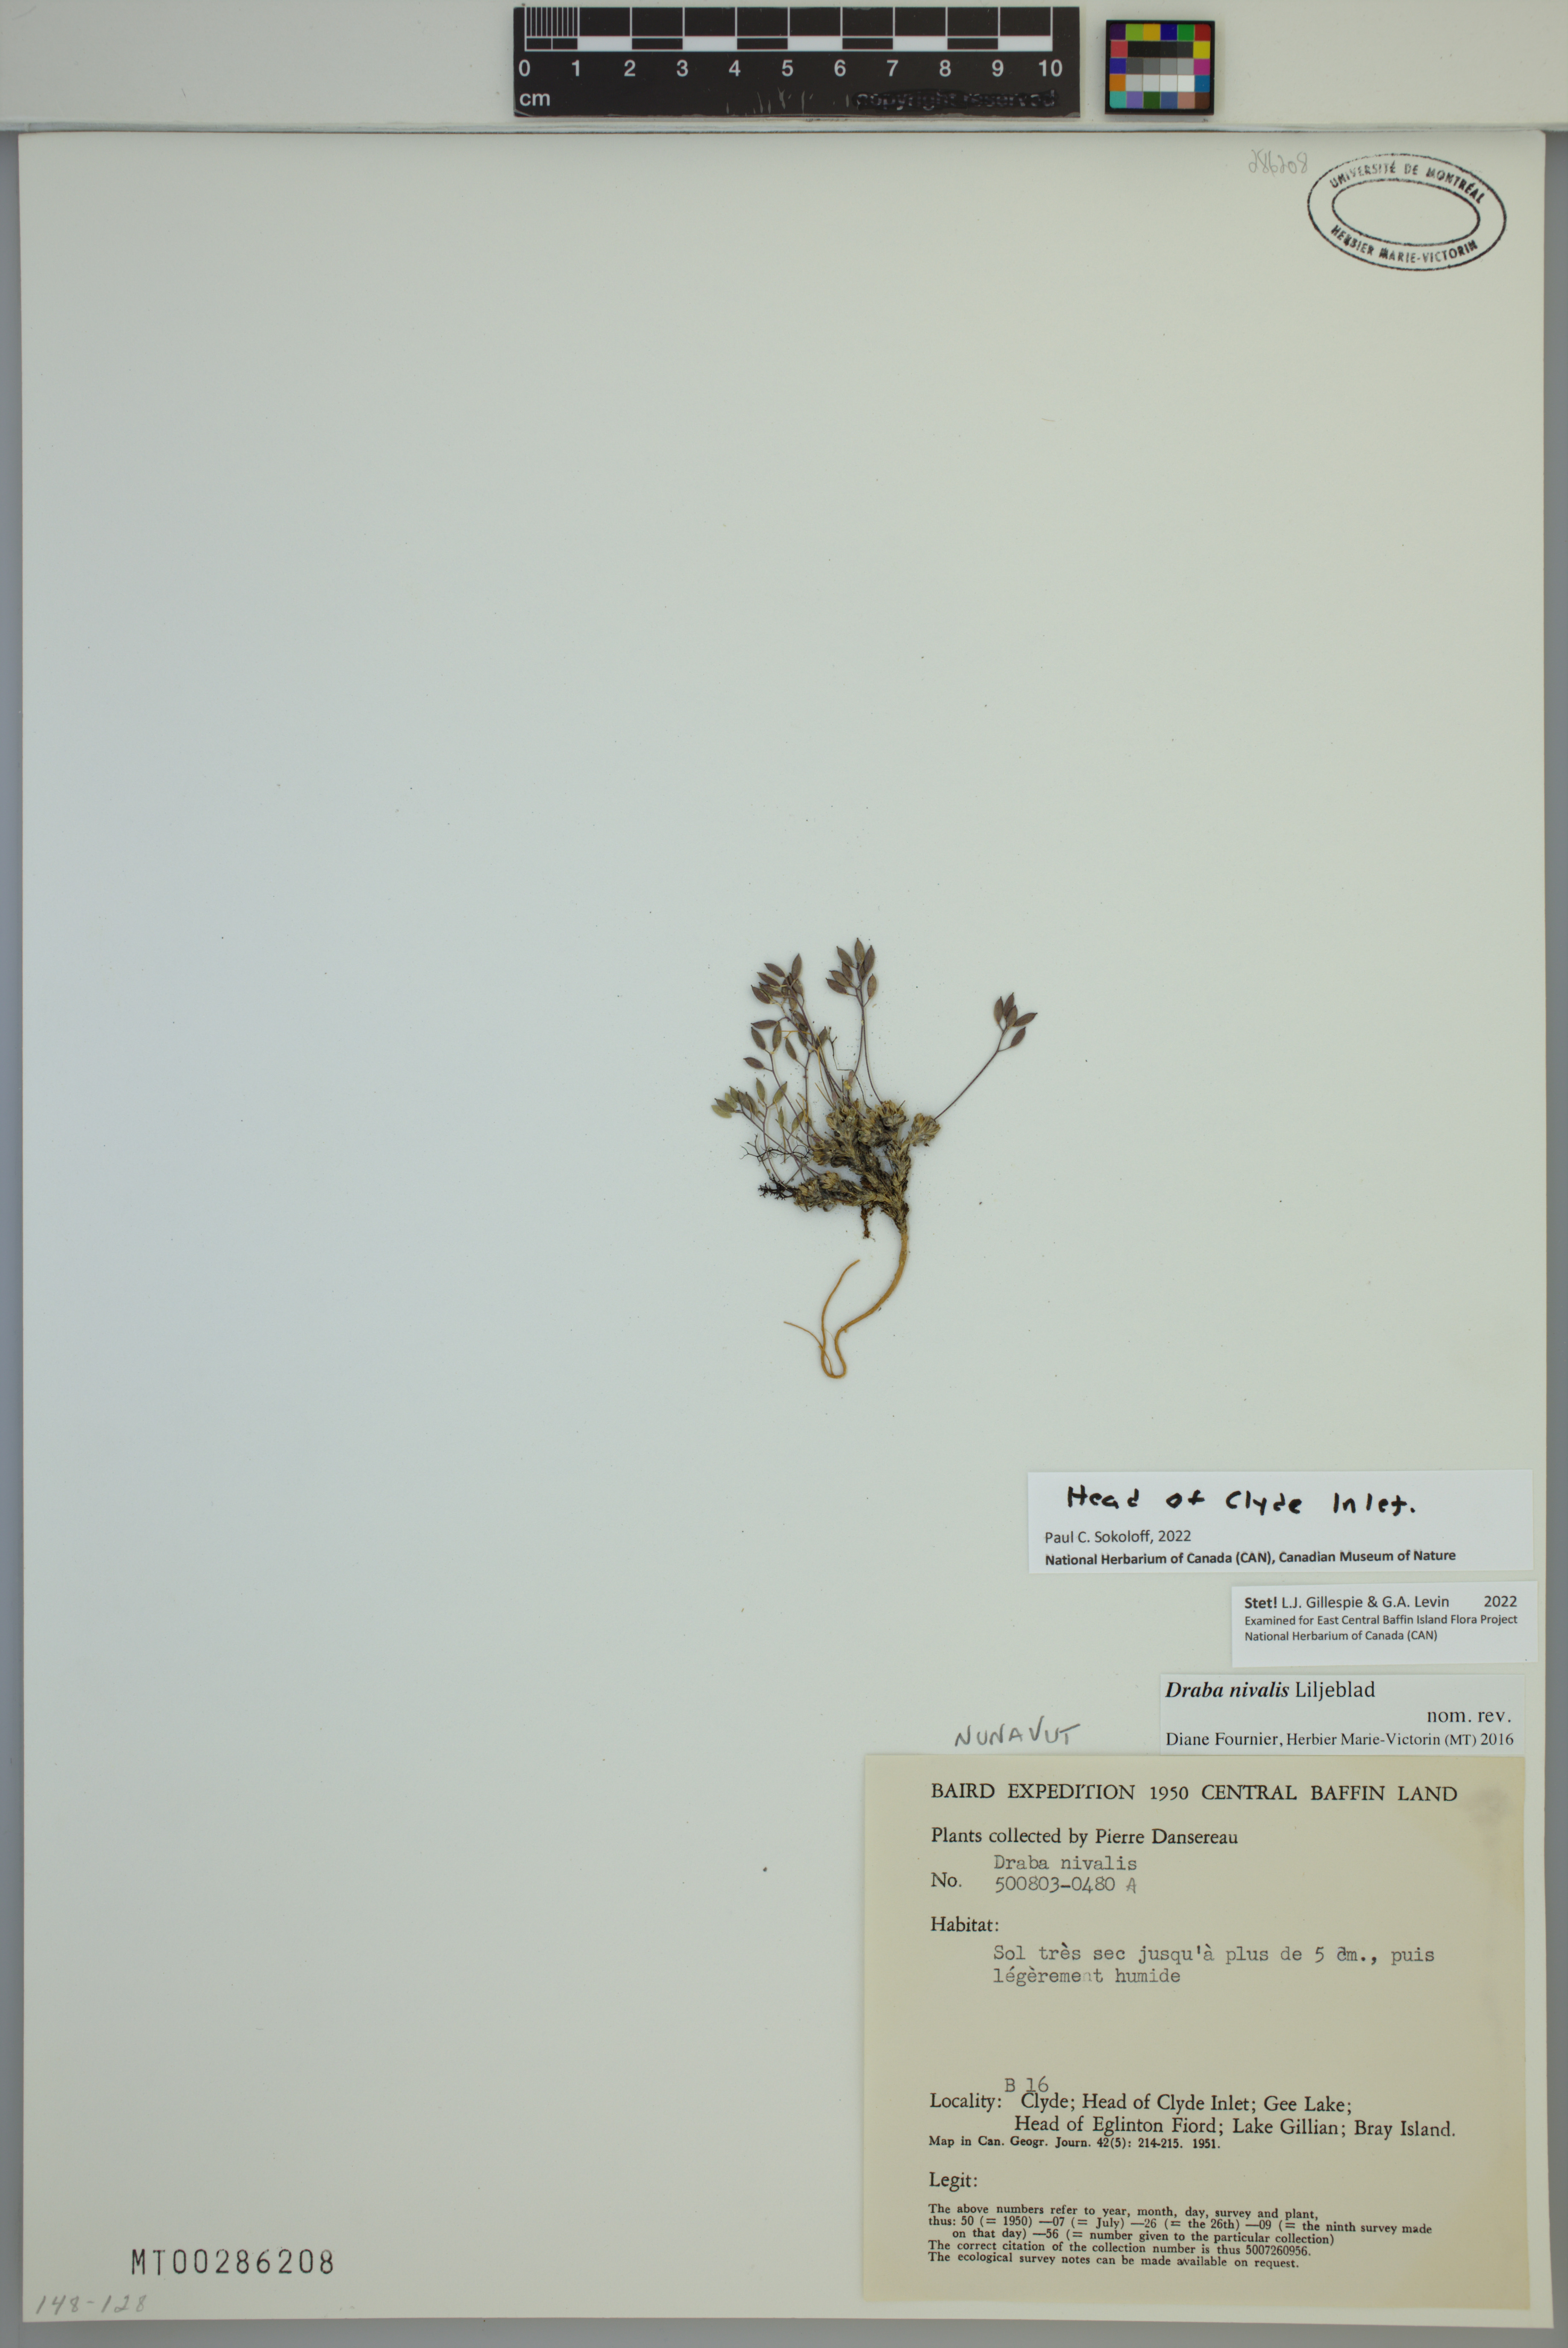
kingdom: Plantae
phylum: Tracheophyta
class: Magnoliopsida
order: Brassicales
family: Brassicaceae
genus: Draba
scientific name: Draba nivalis
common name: Snow draba
